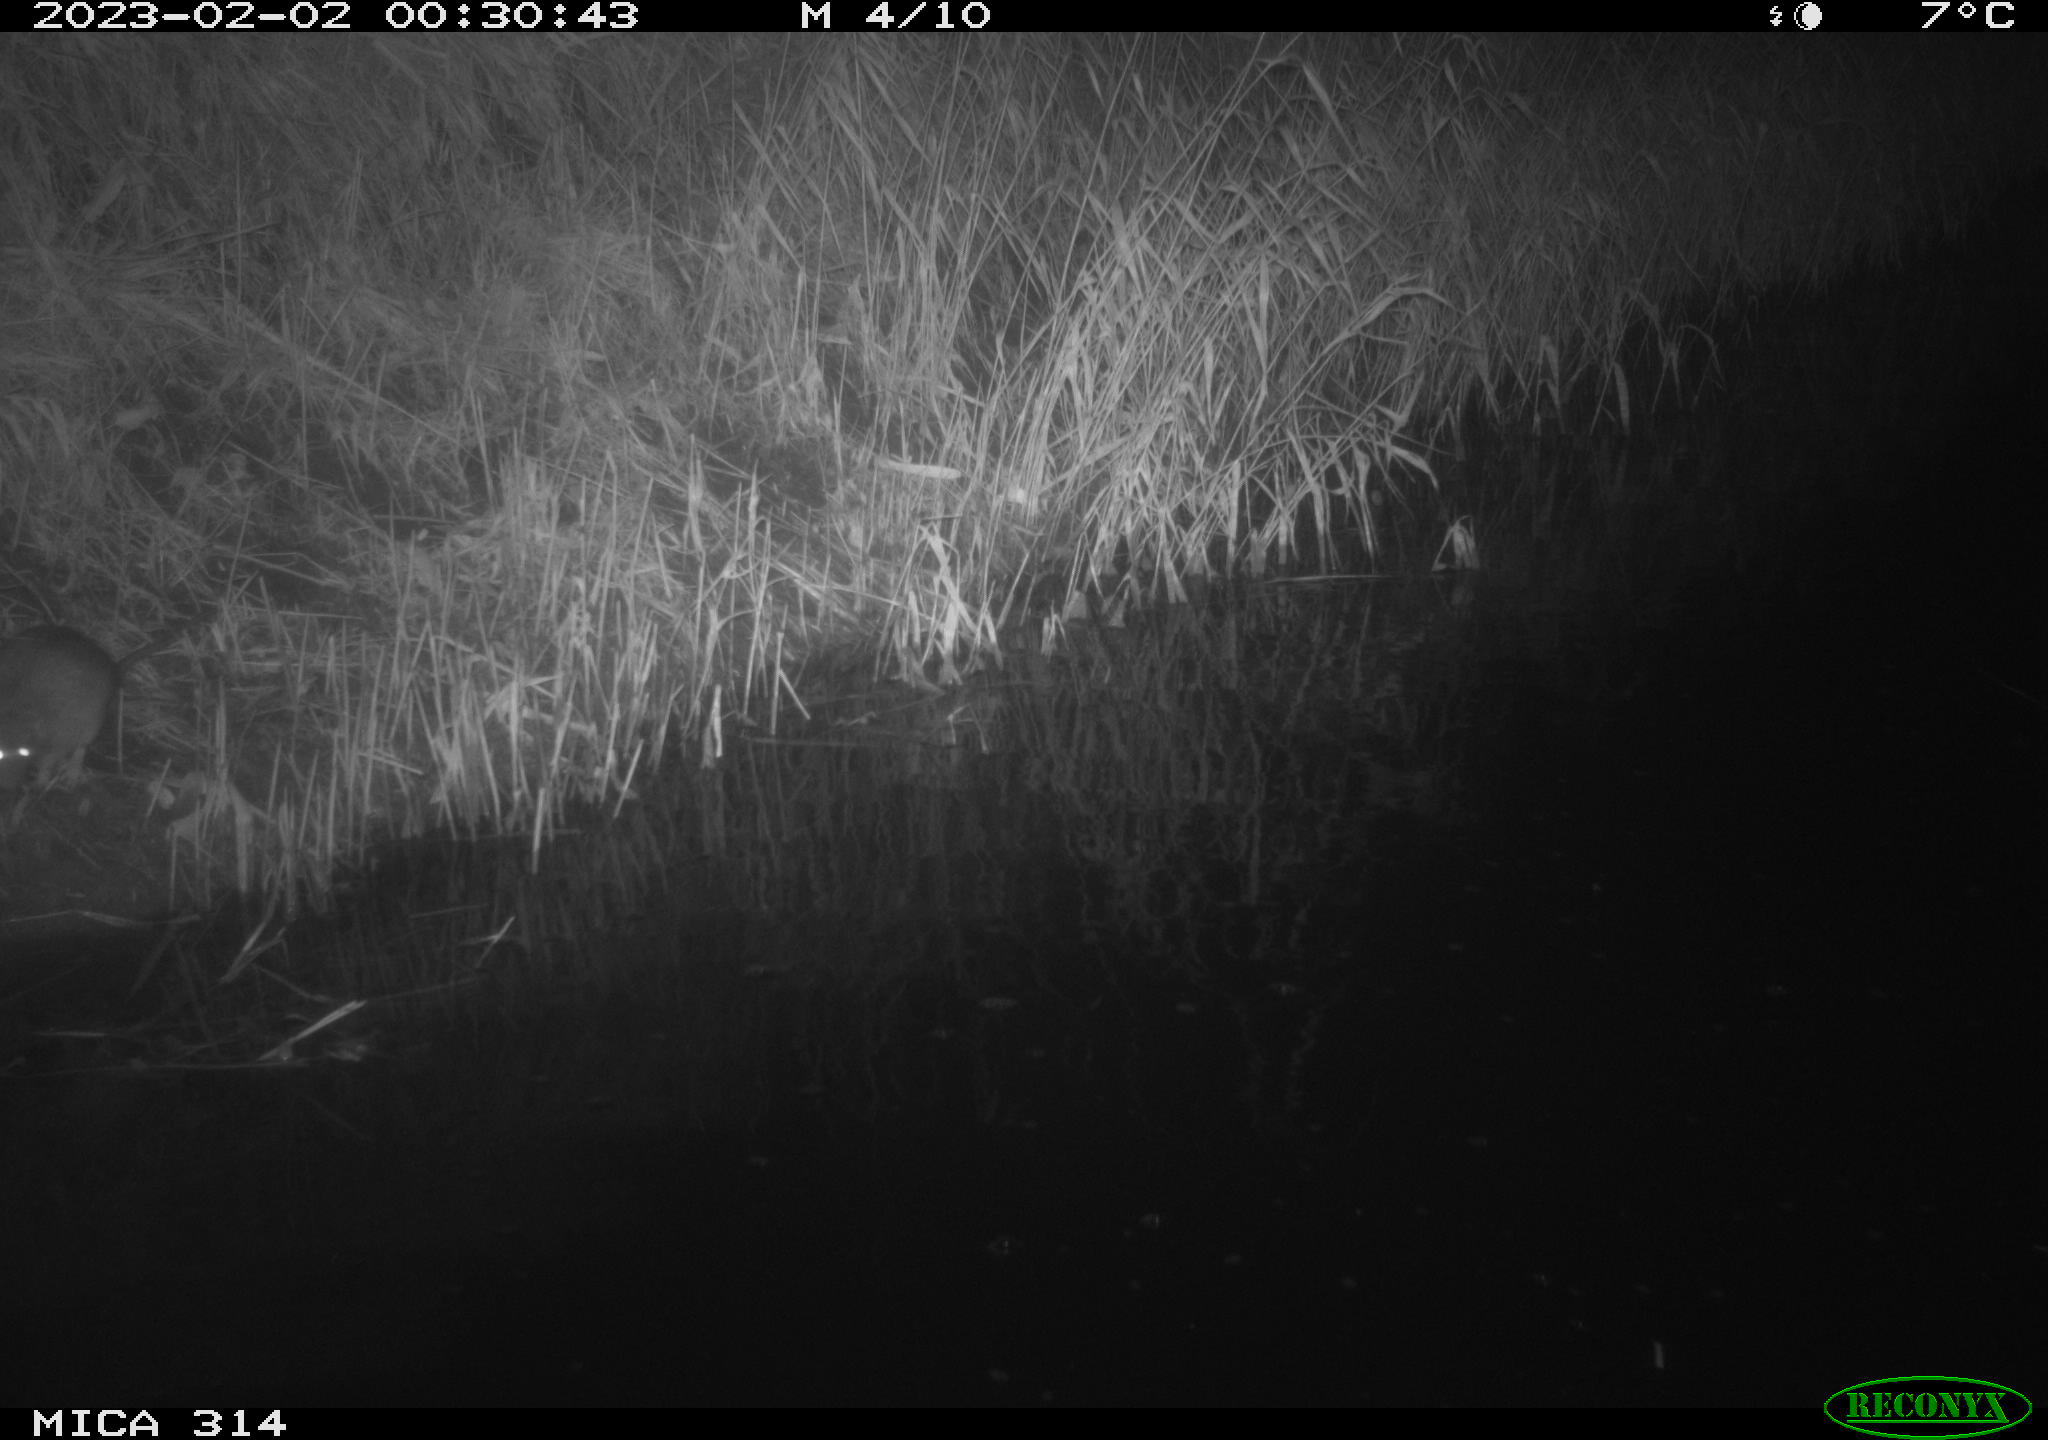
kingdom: Animalia
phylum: Chordata
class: Mammalia
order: Rodentia
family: Muridae
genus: Rattus
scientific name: Rattus norvegicus
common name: Brown rat
